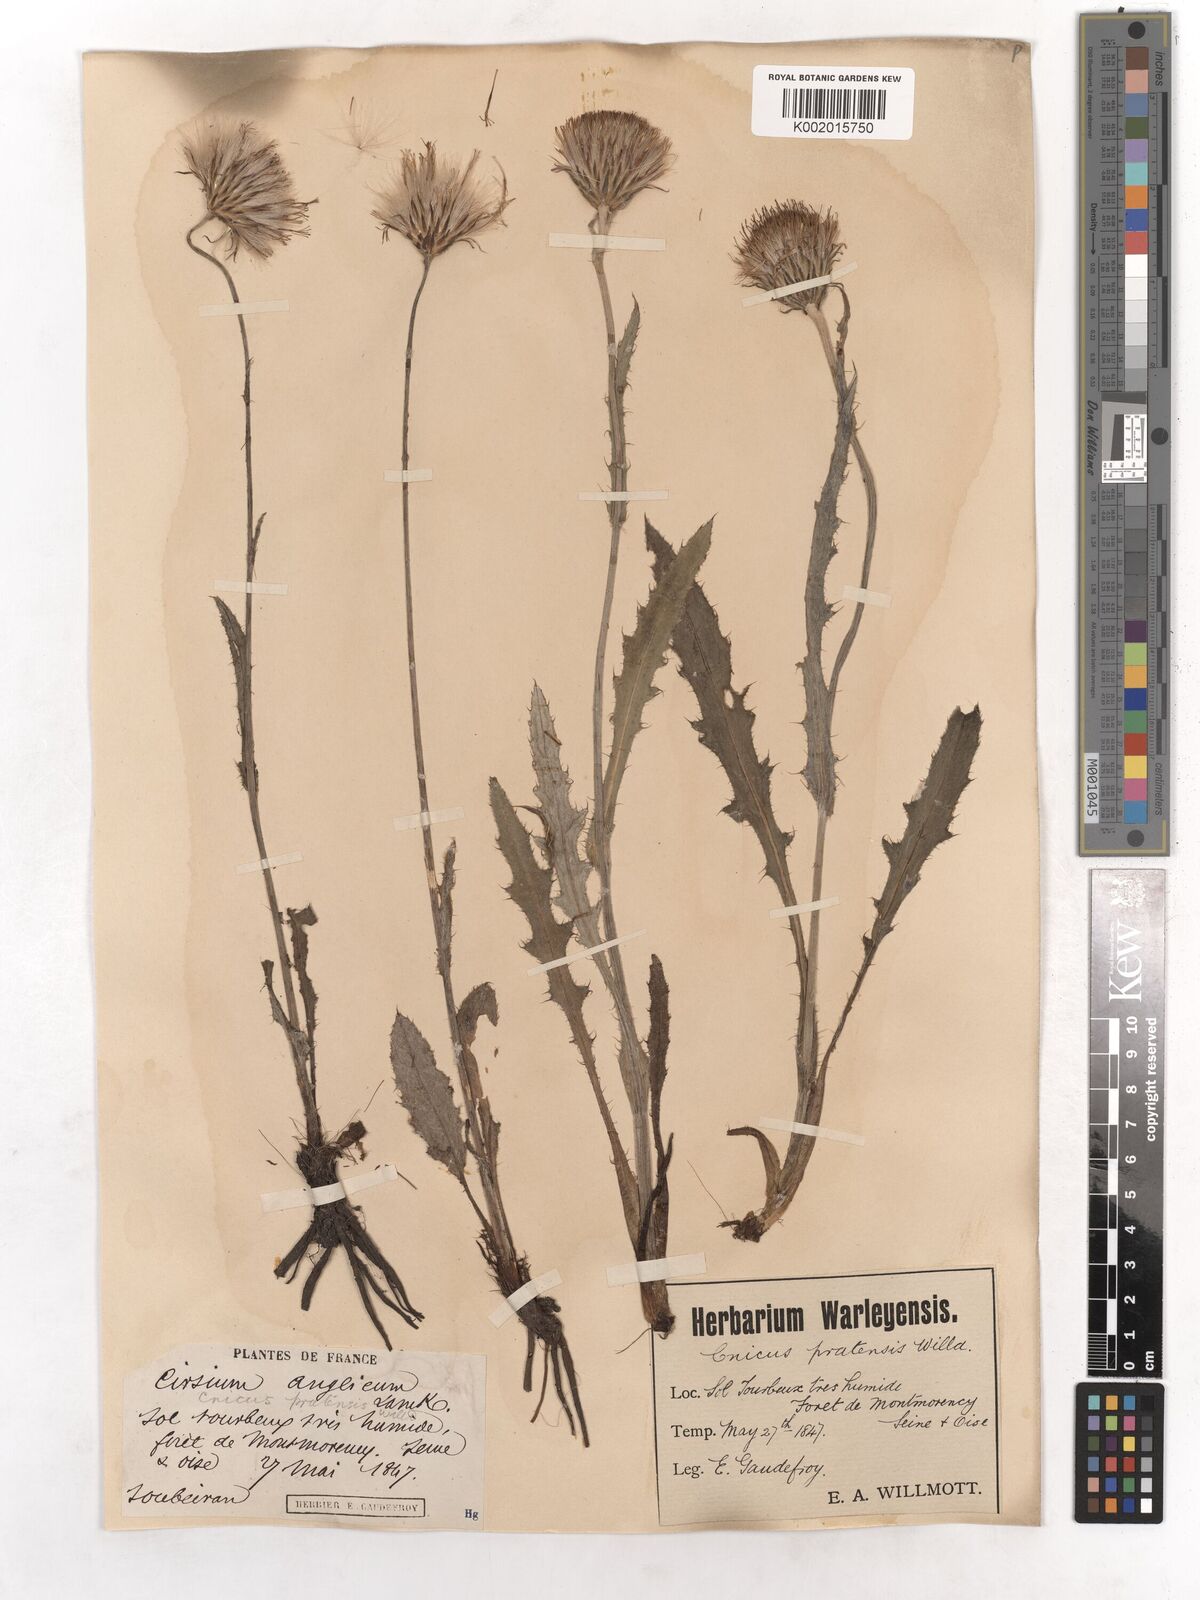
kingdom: Plantae
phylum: Tracheophyta
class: Magnoliopsida
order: Asterales
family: Asteraceae
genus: Cirsium
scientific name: Cirsium dissectum
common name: Meadow thistle
